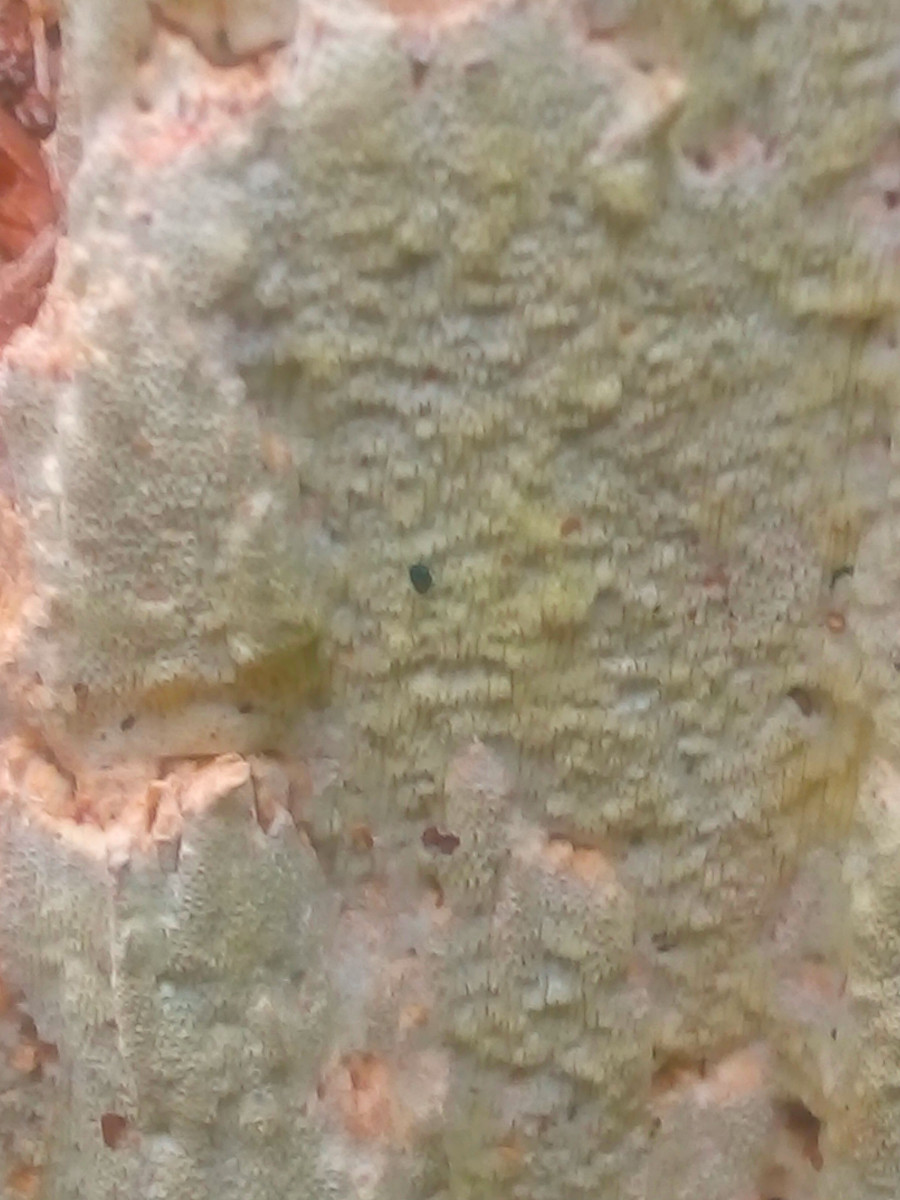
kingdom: Fungi
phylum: Basidiomycota
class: Agaricomycetes
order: Polyporales
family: Fomitopsidaceae
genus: Daedalea
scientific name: Daedalea xantha
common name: gul sejporesvamp
